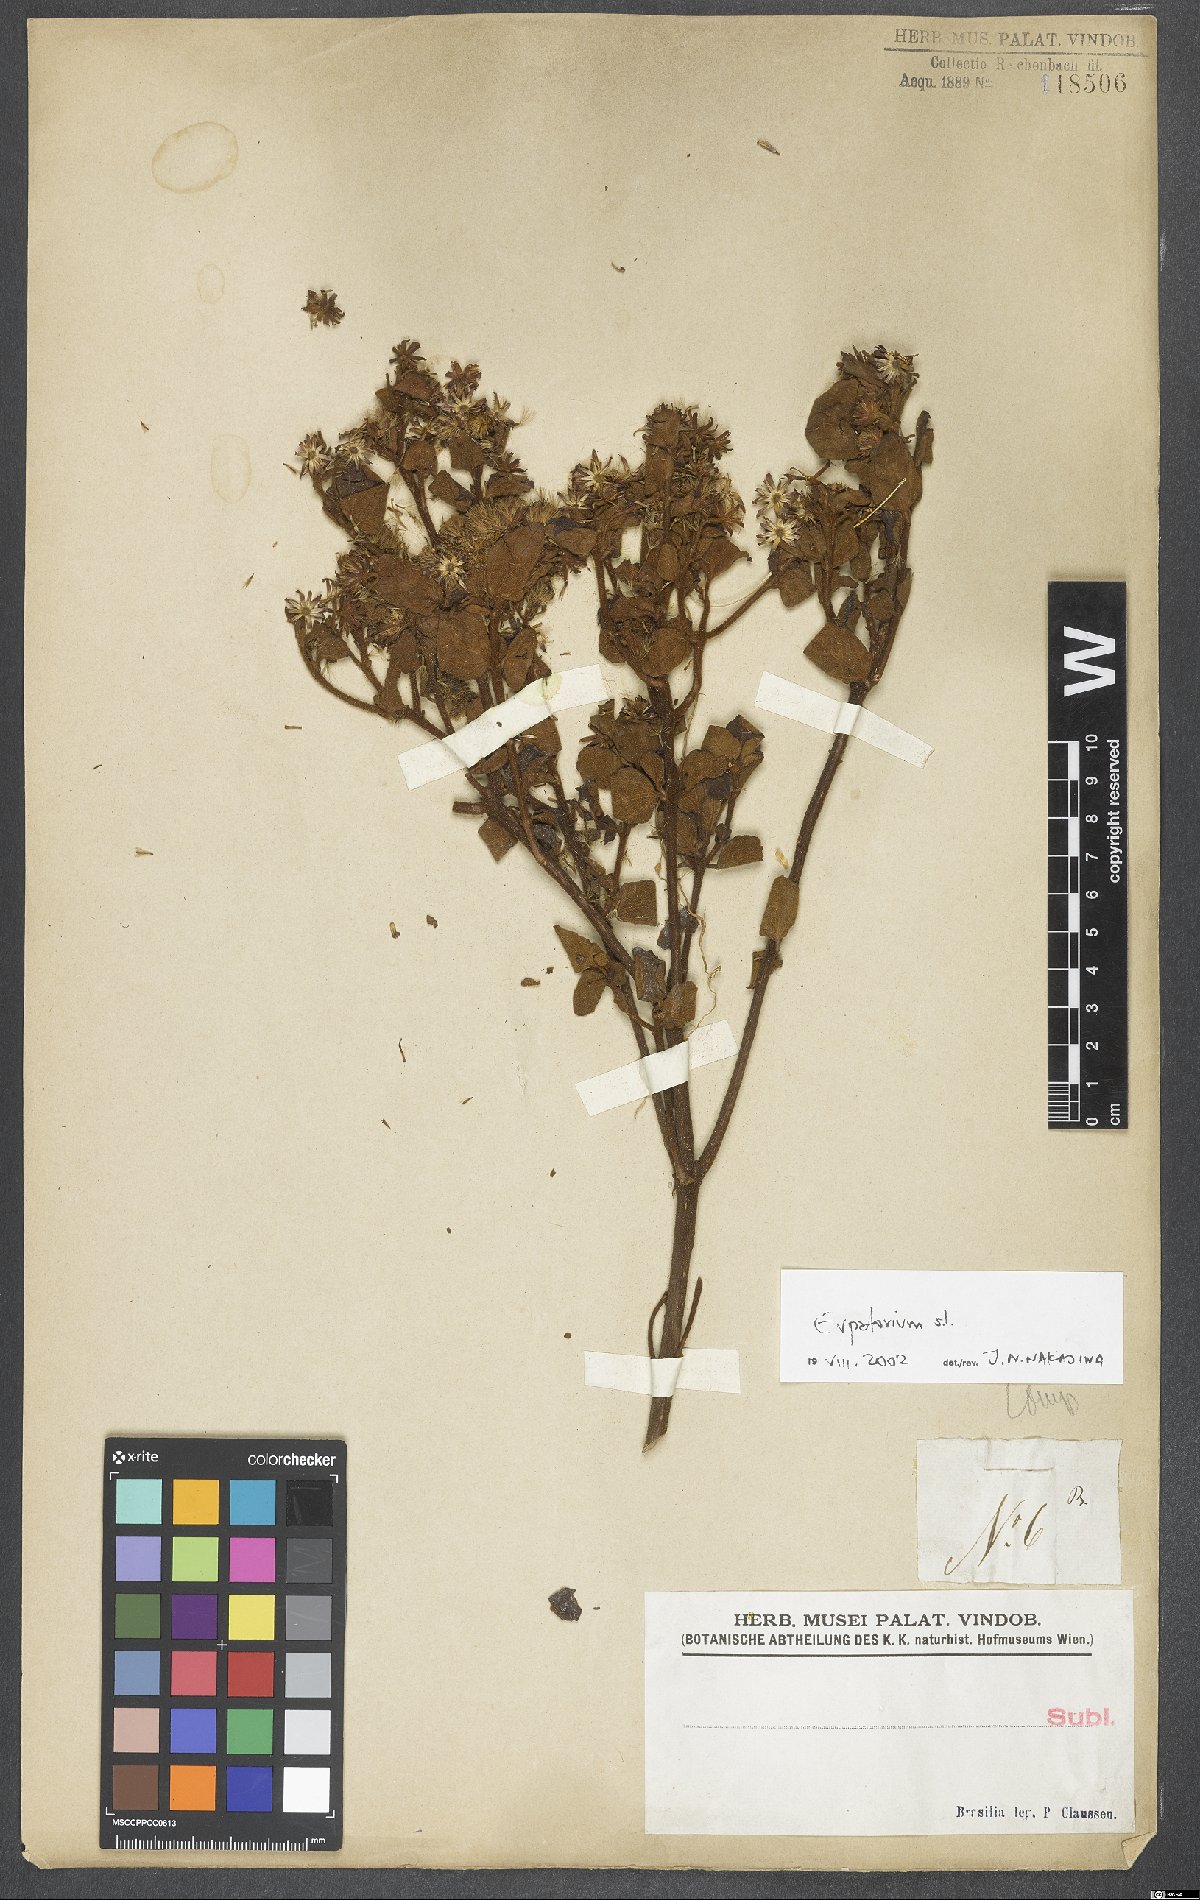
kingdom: Plantae
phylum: Tracheophyta
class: Magnoliopsida
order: Asterales
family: Asteraceae
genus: Eupatorium
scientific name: Eupatorium
